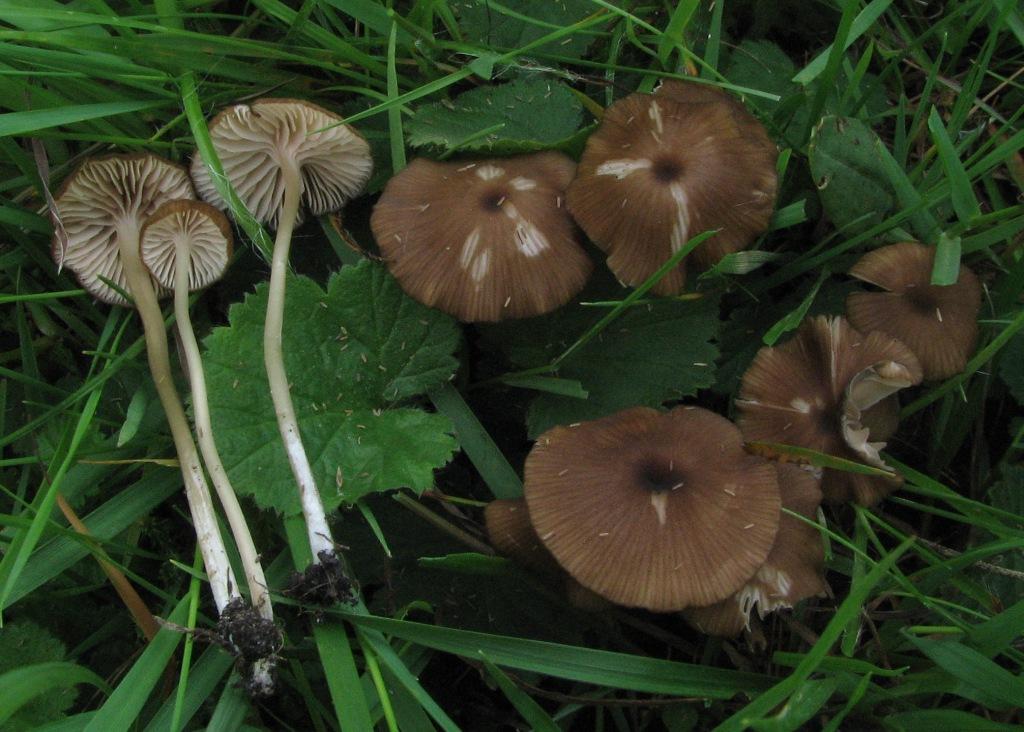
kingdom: Fungi
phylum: Basidiomycota
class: Agaricomycetes
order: Agaricales
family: Entolomataceae
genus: Entoloma
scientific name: Entoloma longistriatum
